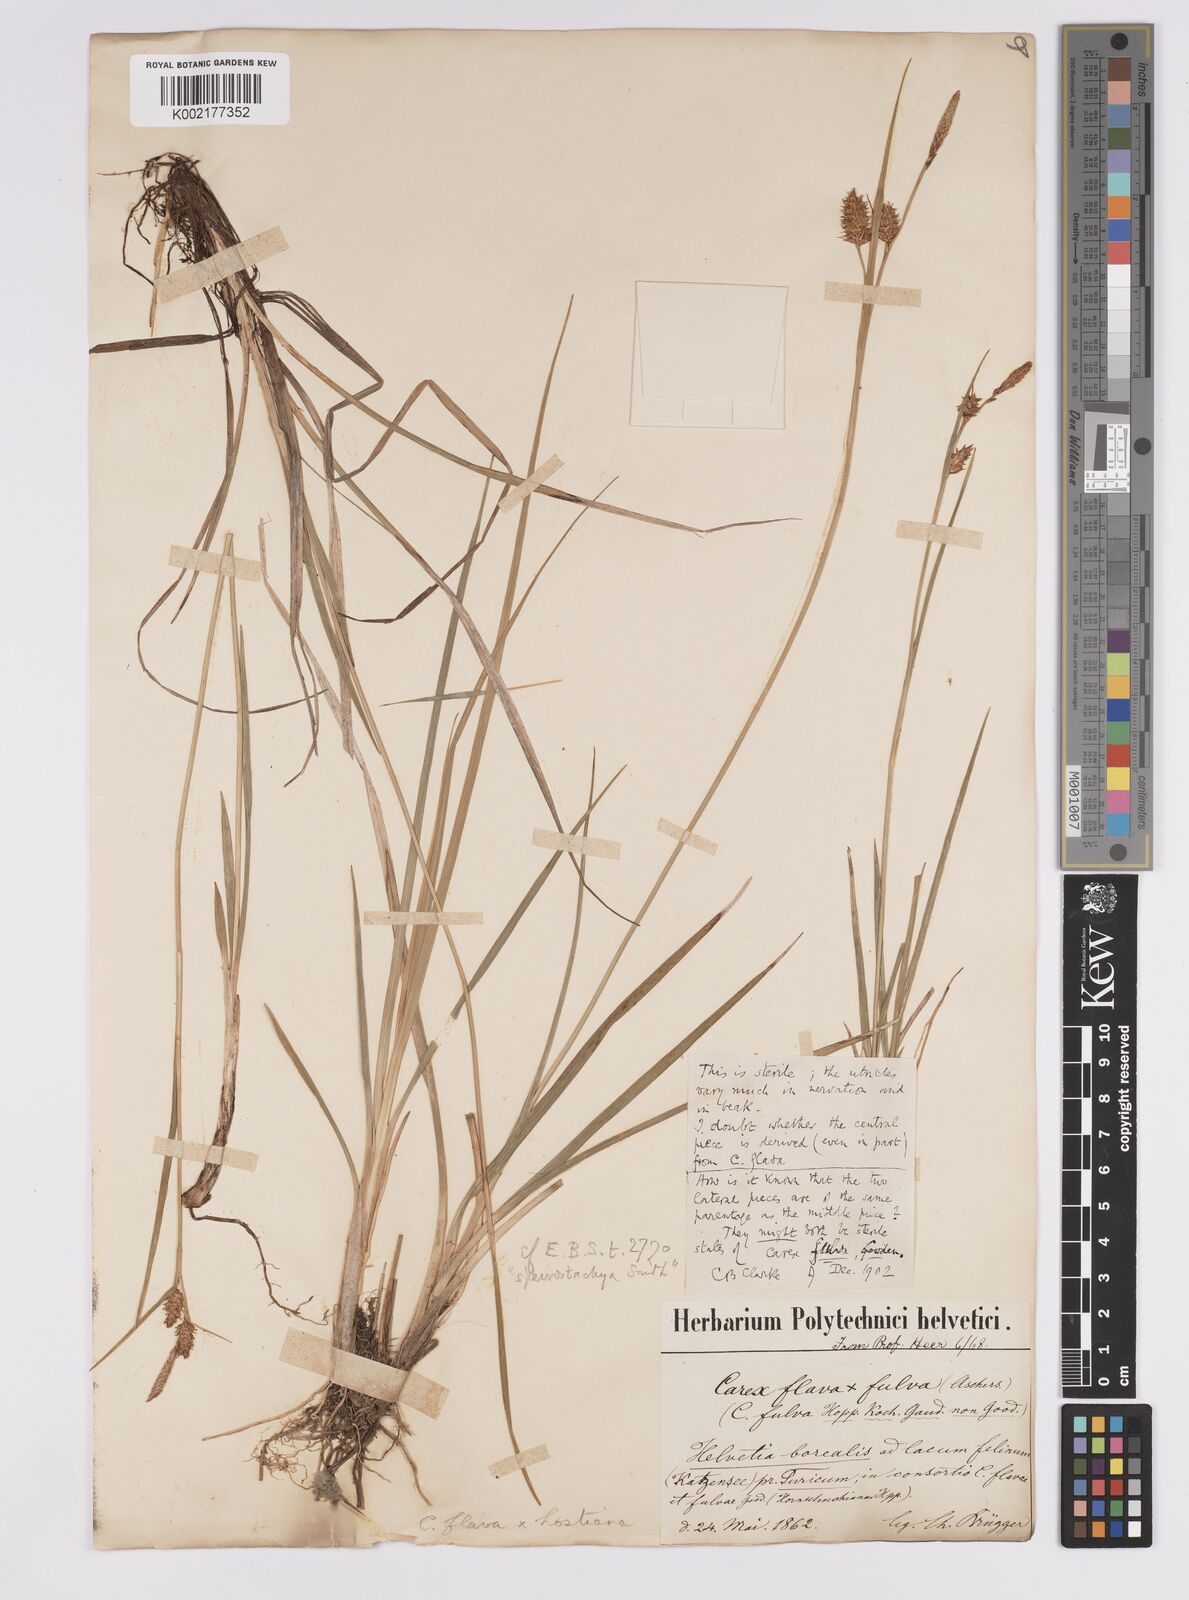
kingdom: Plantae
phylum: Tracheophyta
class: Liliopsida
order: Poales
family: Cyperaceae
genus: Carex
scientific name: Carex hostiana
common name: Tawny sedge
